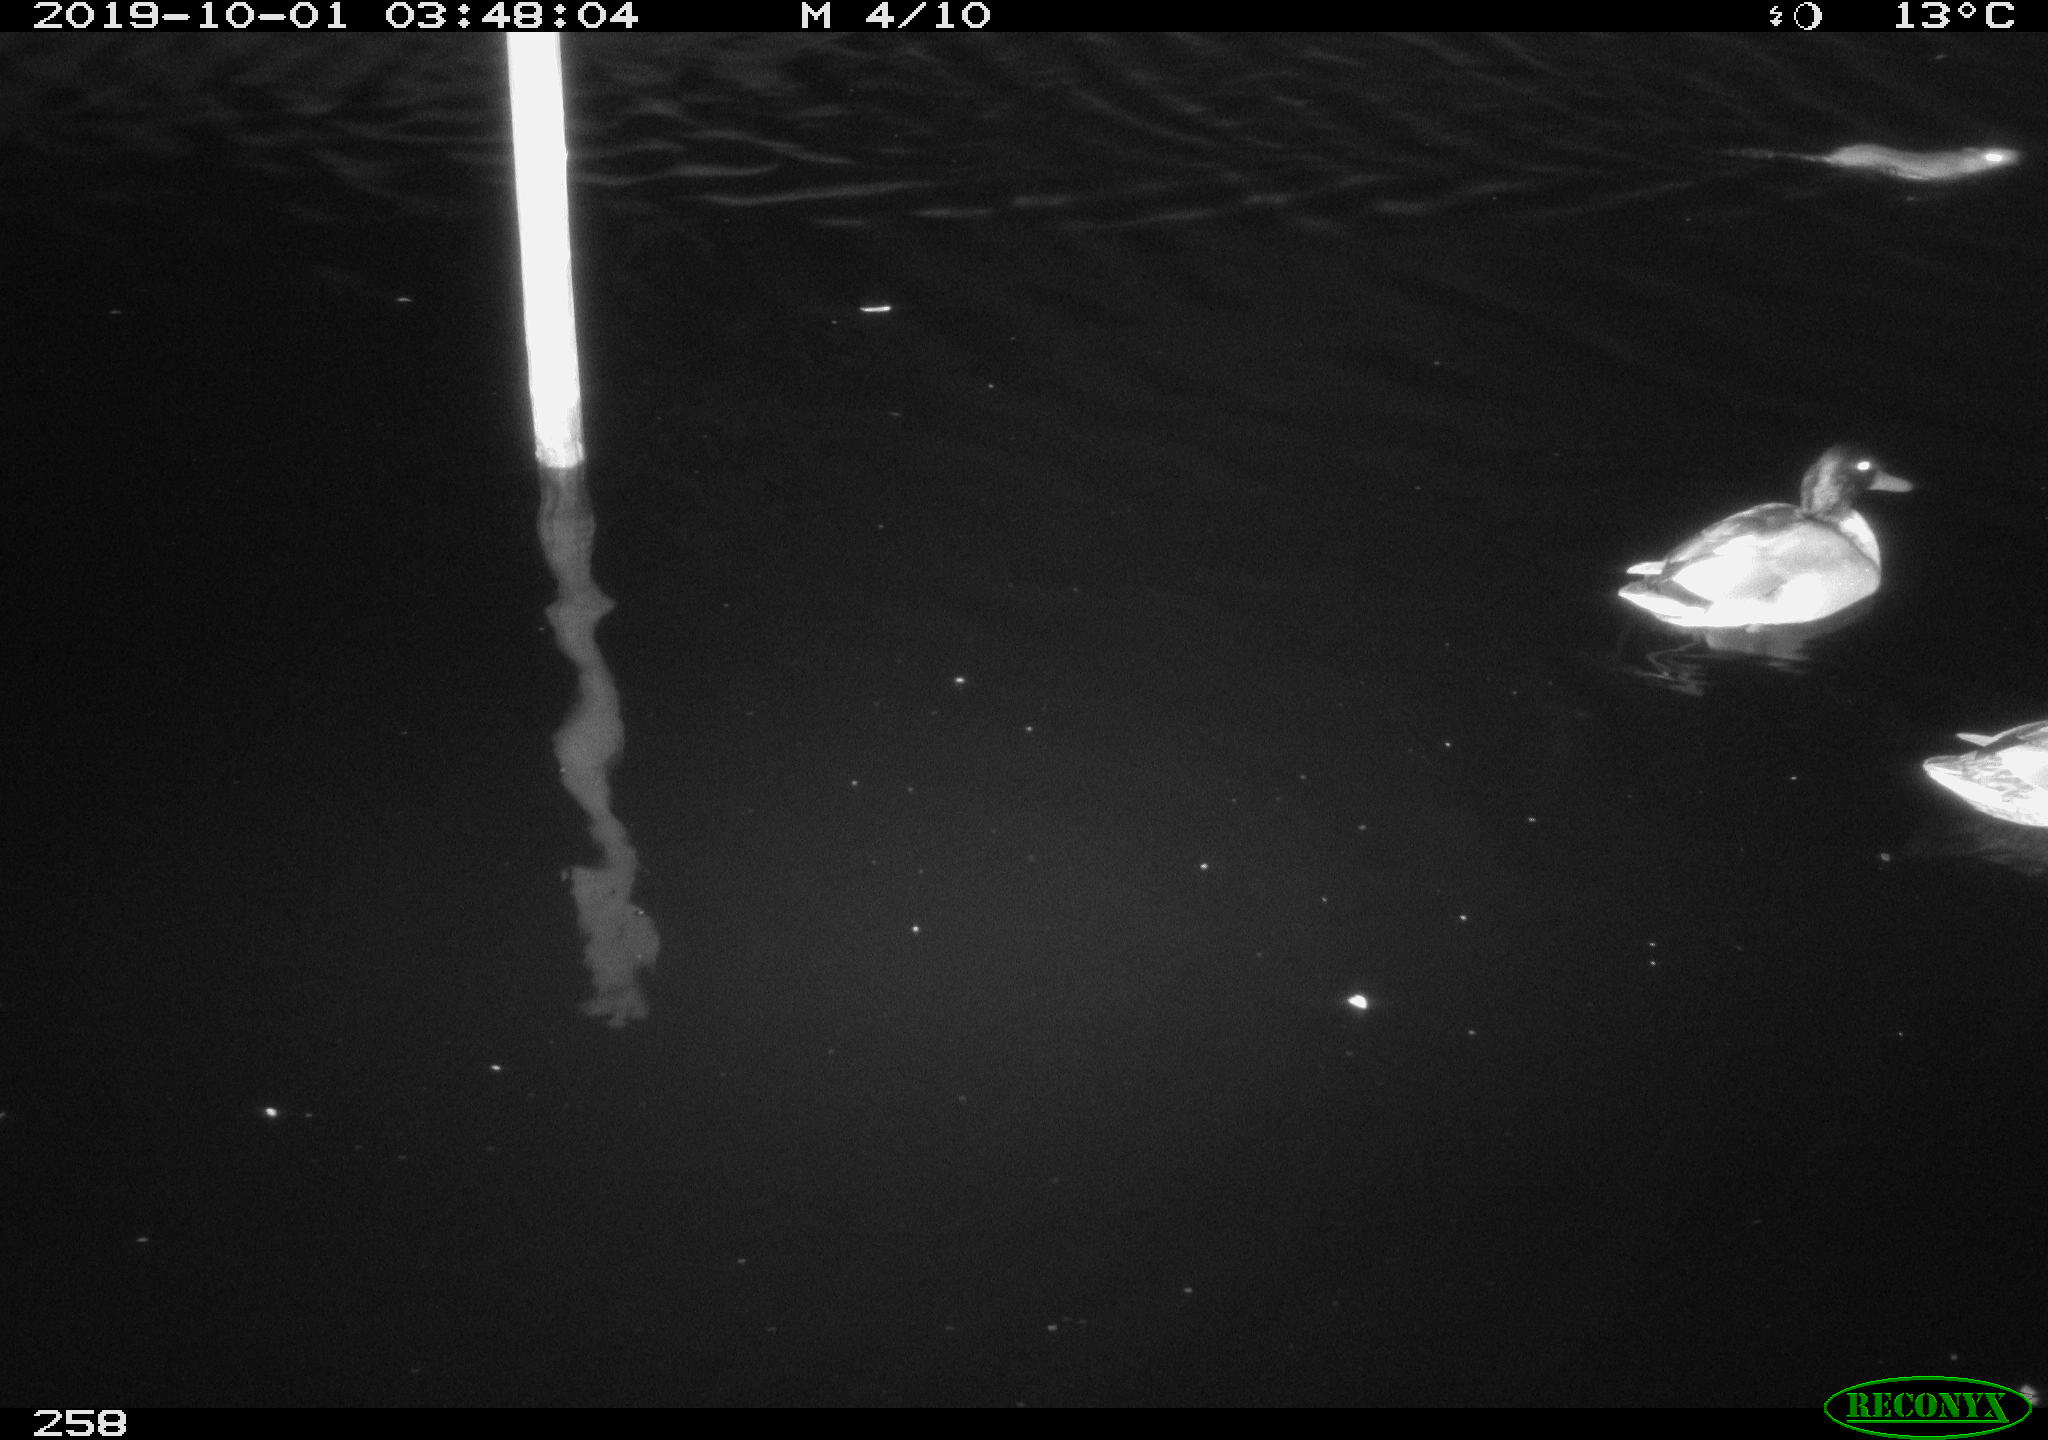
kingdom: Animalia
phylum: Chordata
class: Aves
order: Anseriformes
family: Anatidae
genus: Anas
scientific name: Anas platyrhynchos
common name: Mallard
